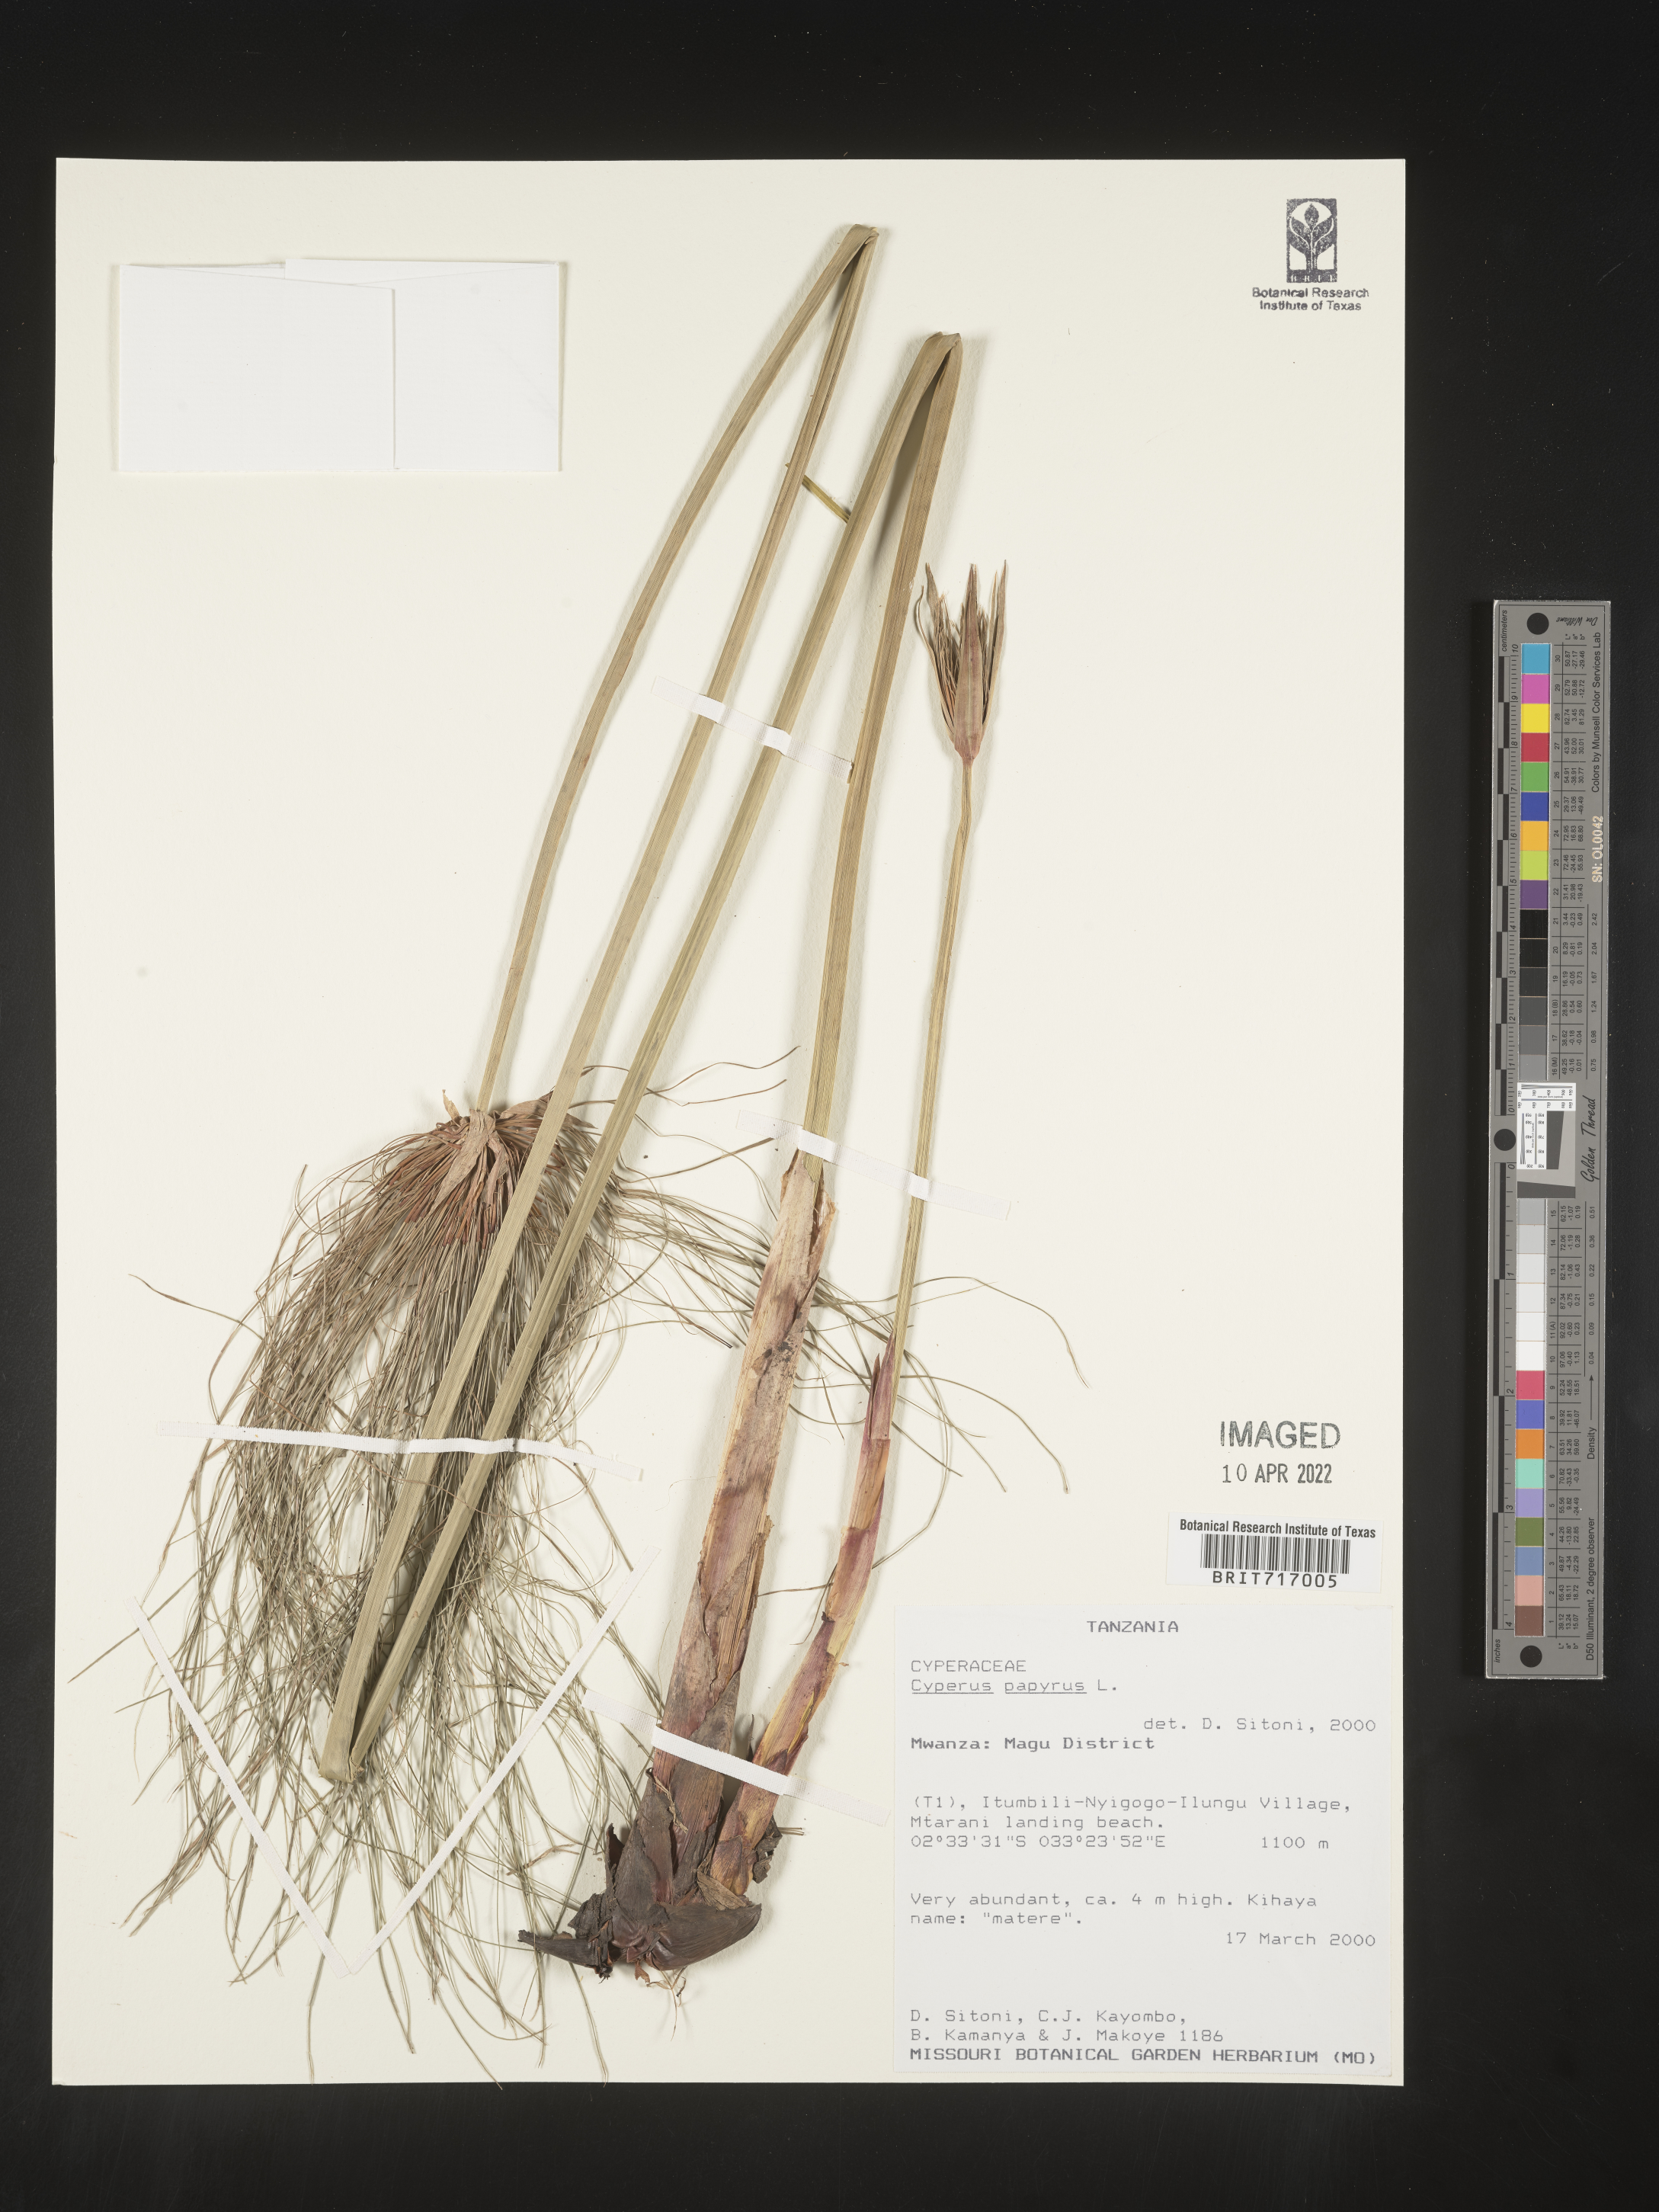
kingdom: Plantae
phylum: Tracheophyta
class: Liliopsida
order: Poales
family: Cyperaceae
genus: Cyperus
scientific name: Cyperus
